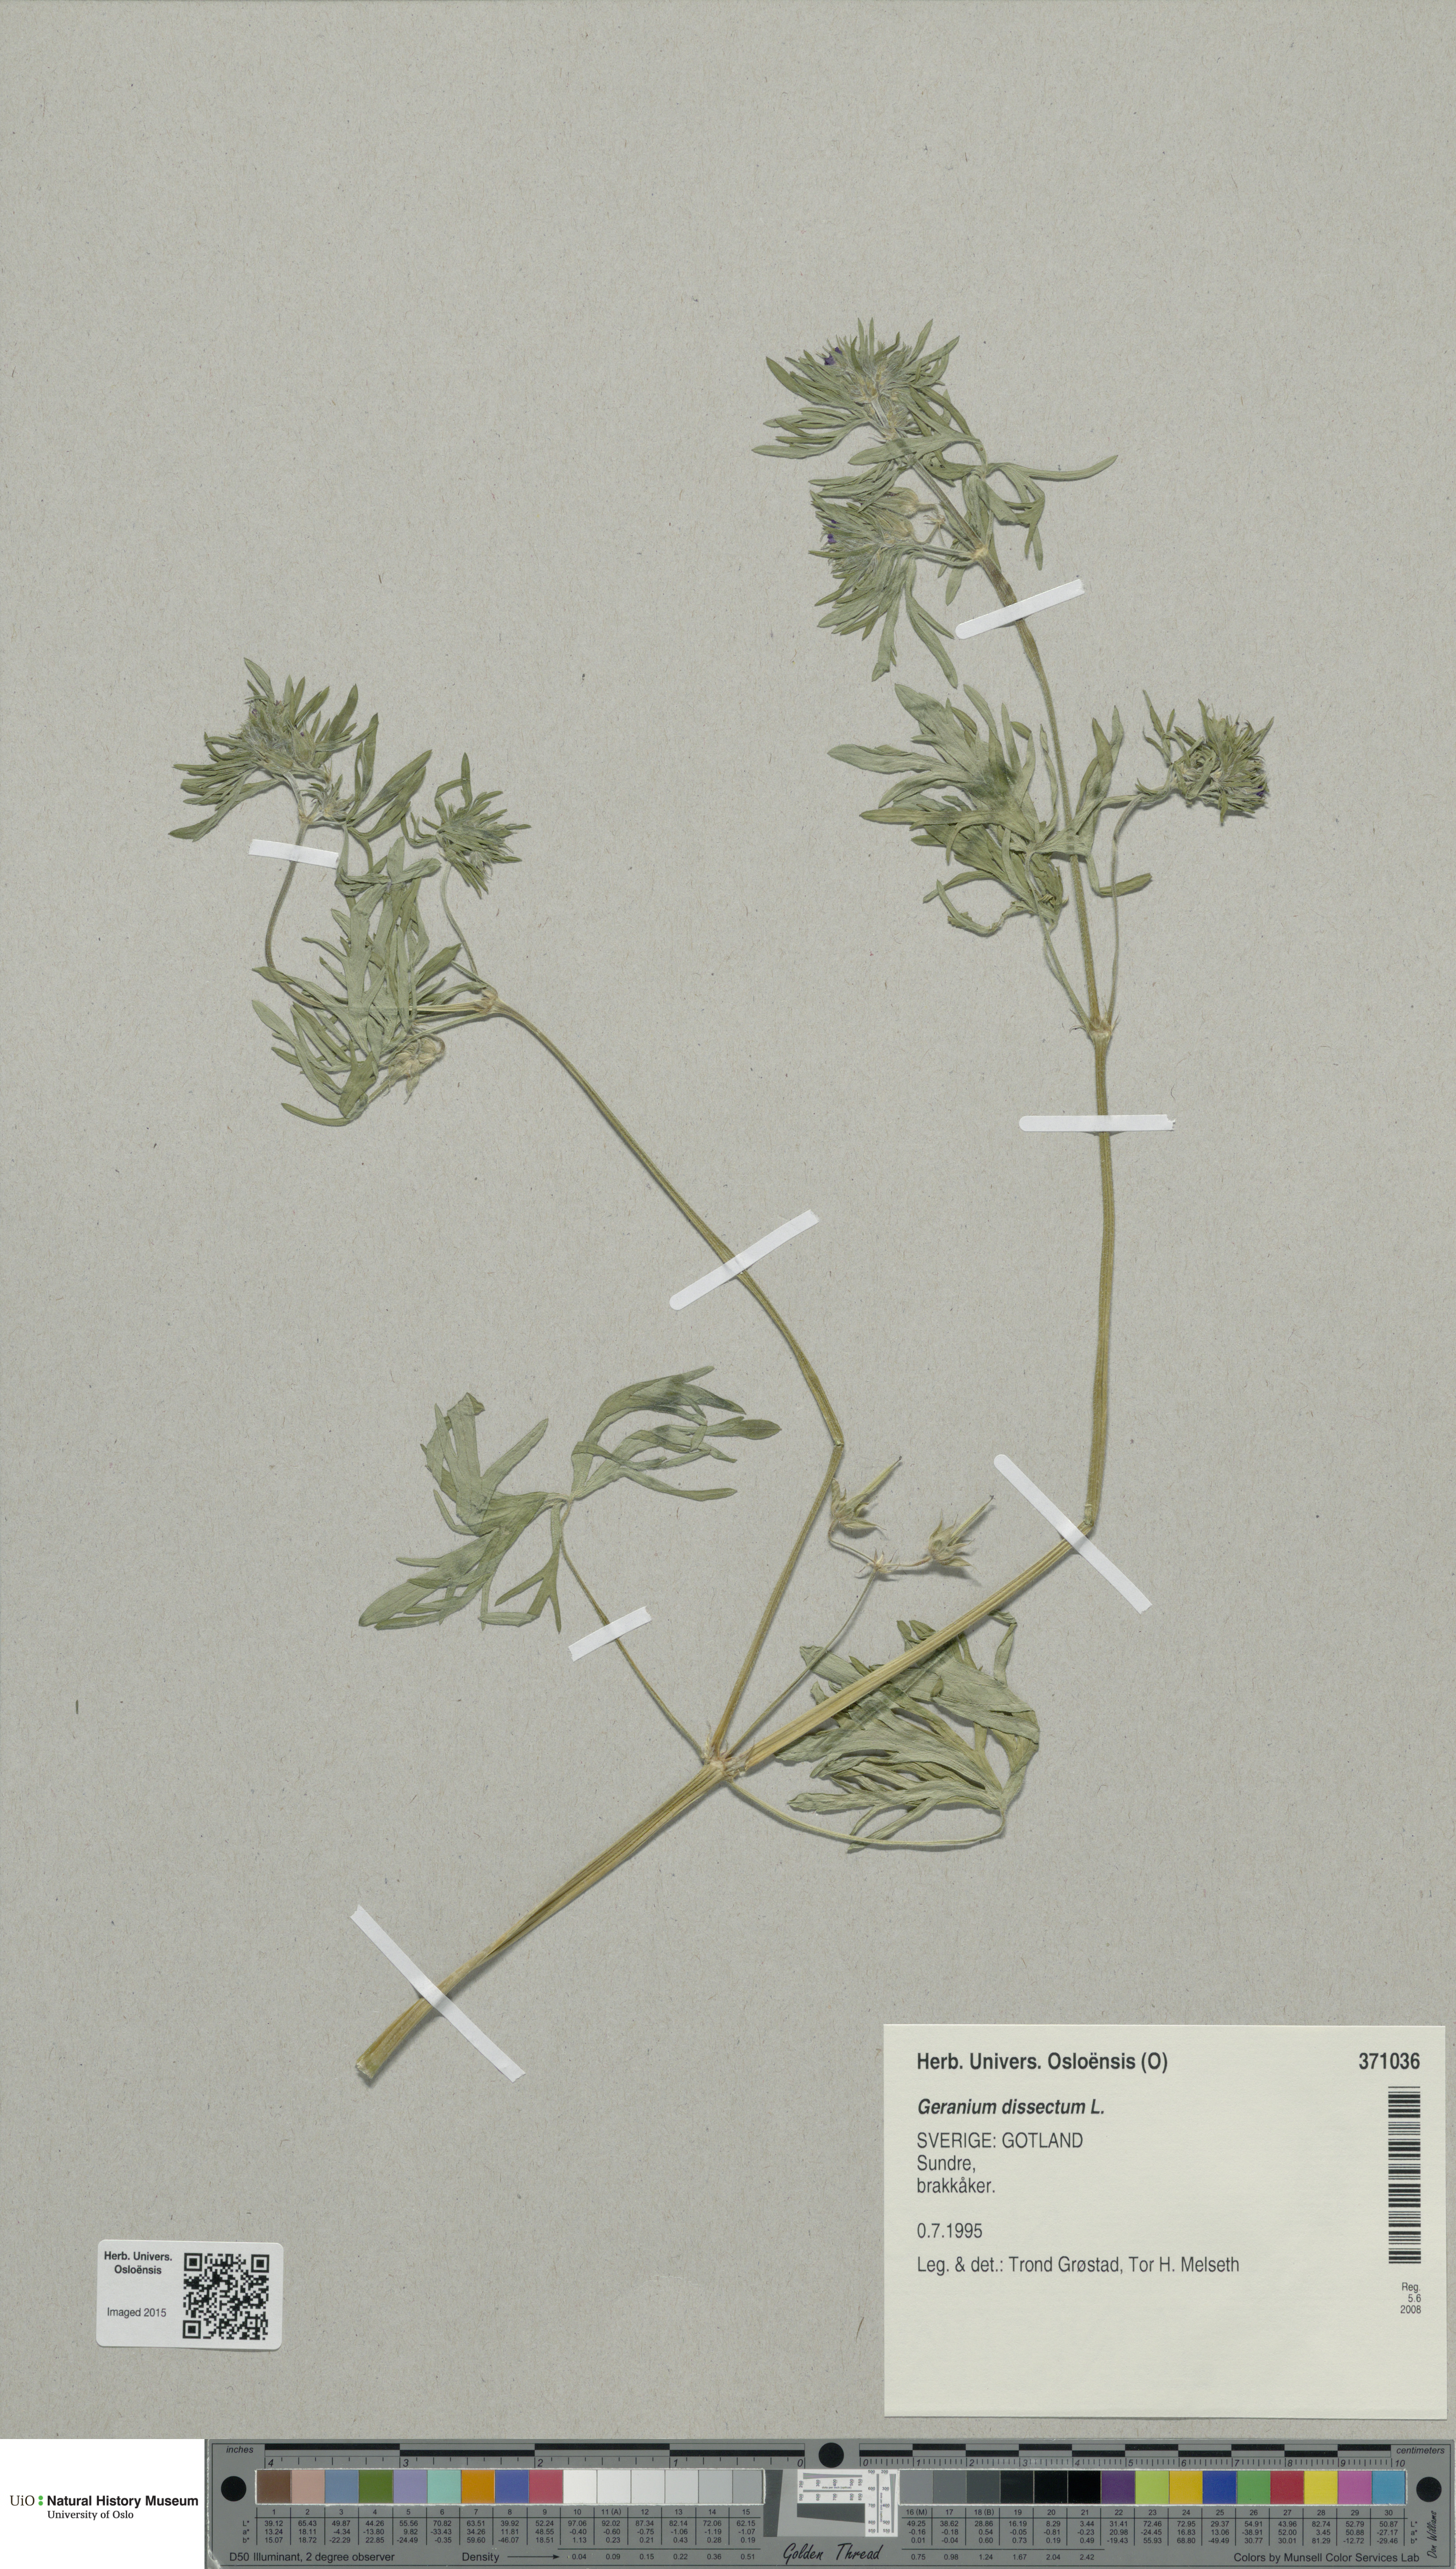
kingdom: Plantae
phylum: Tracheophyta
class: Magnoliopsida
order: Geraniales
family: Geraniaceae
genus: Geranium
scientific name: Geranium dissectum
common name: Cut-leaved crane's-bill
